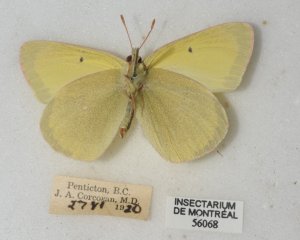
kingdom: Animalia
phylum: Arthropoda
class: Insecta
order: Lepidoptera
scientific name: Lepidoptera
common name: Butterflies
